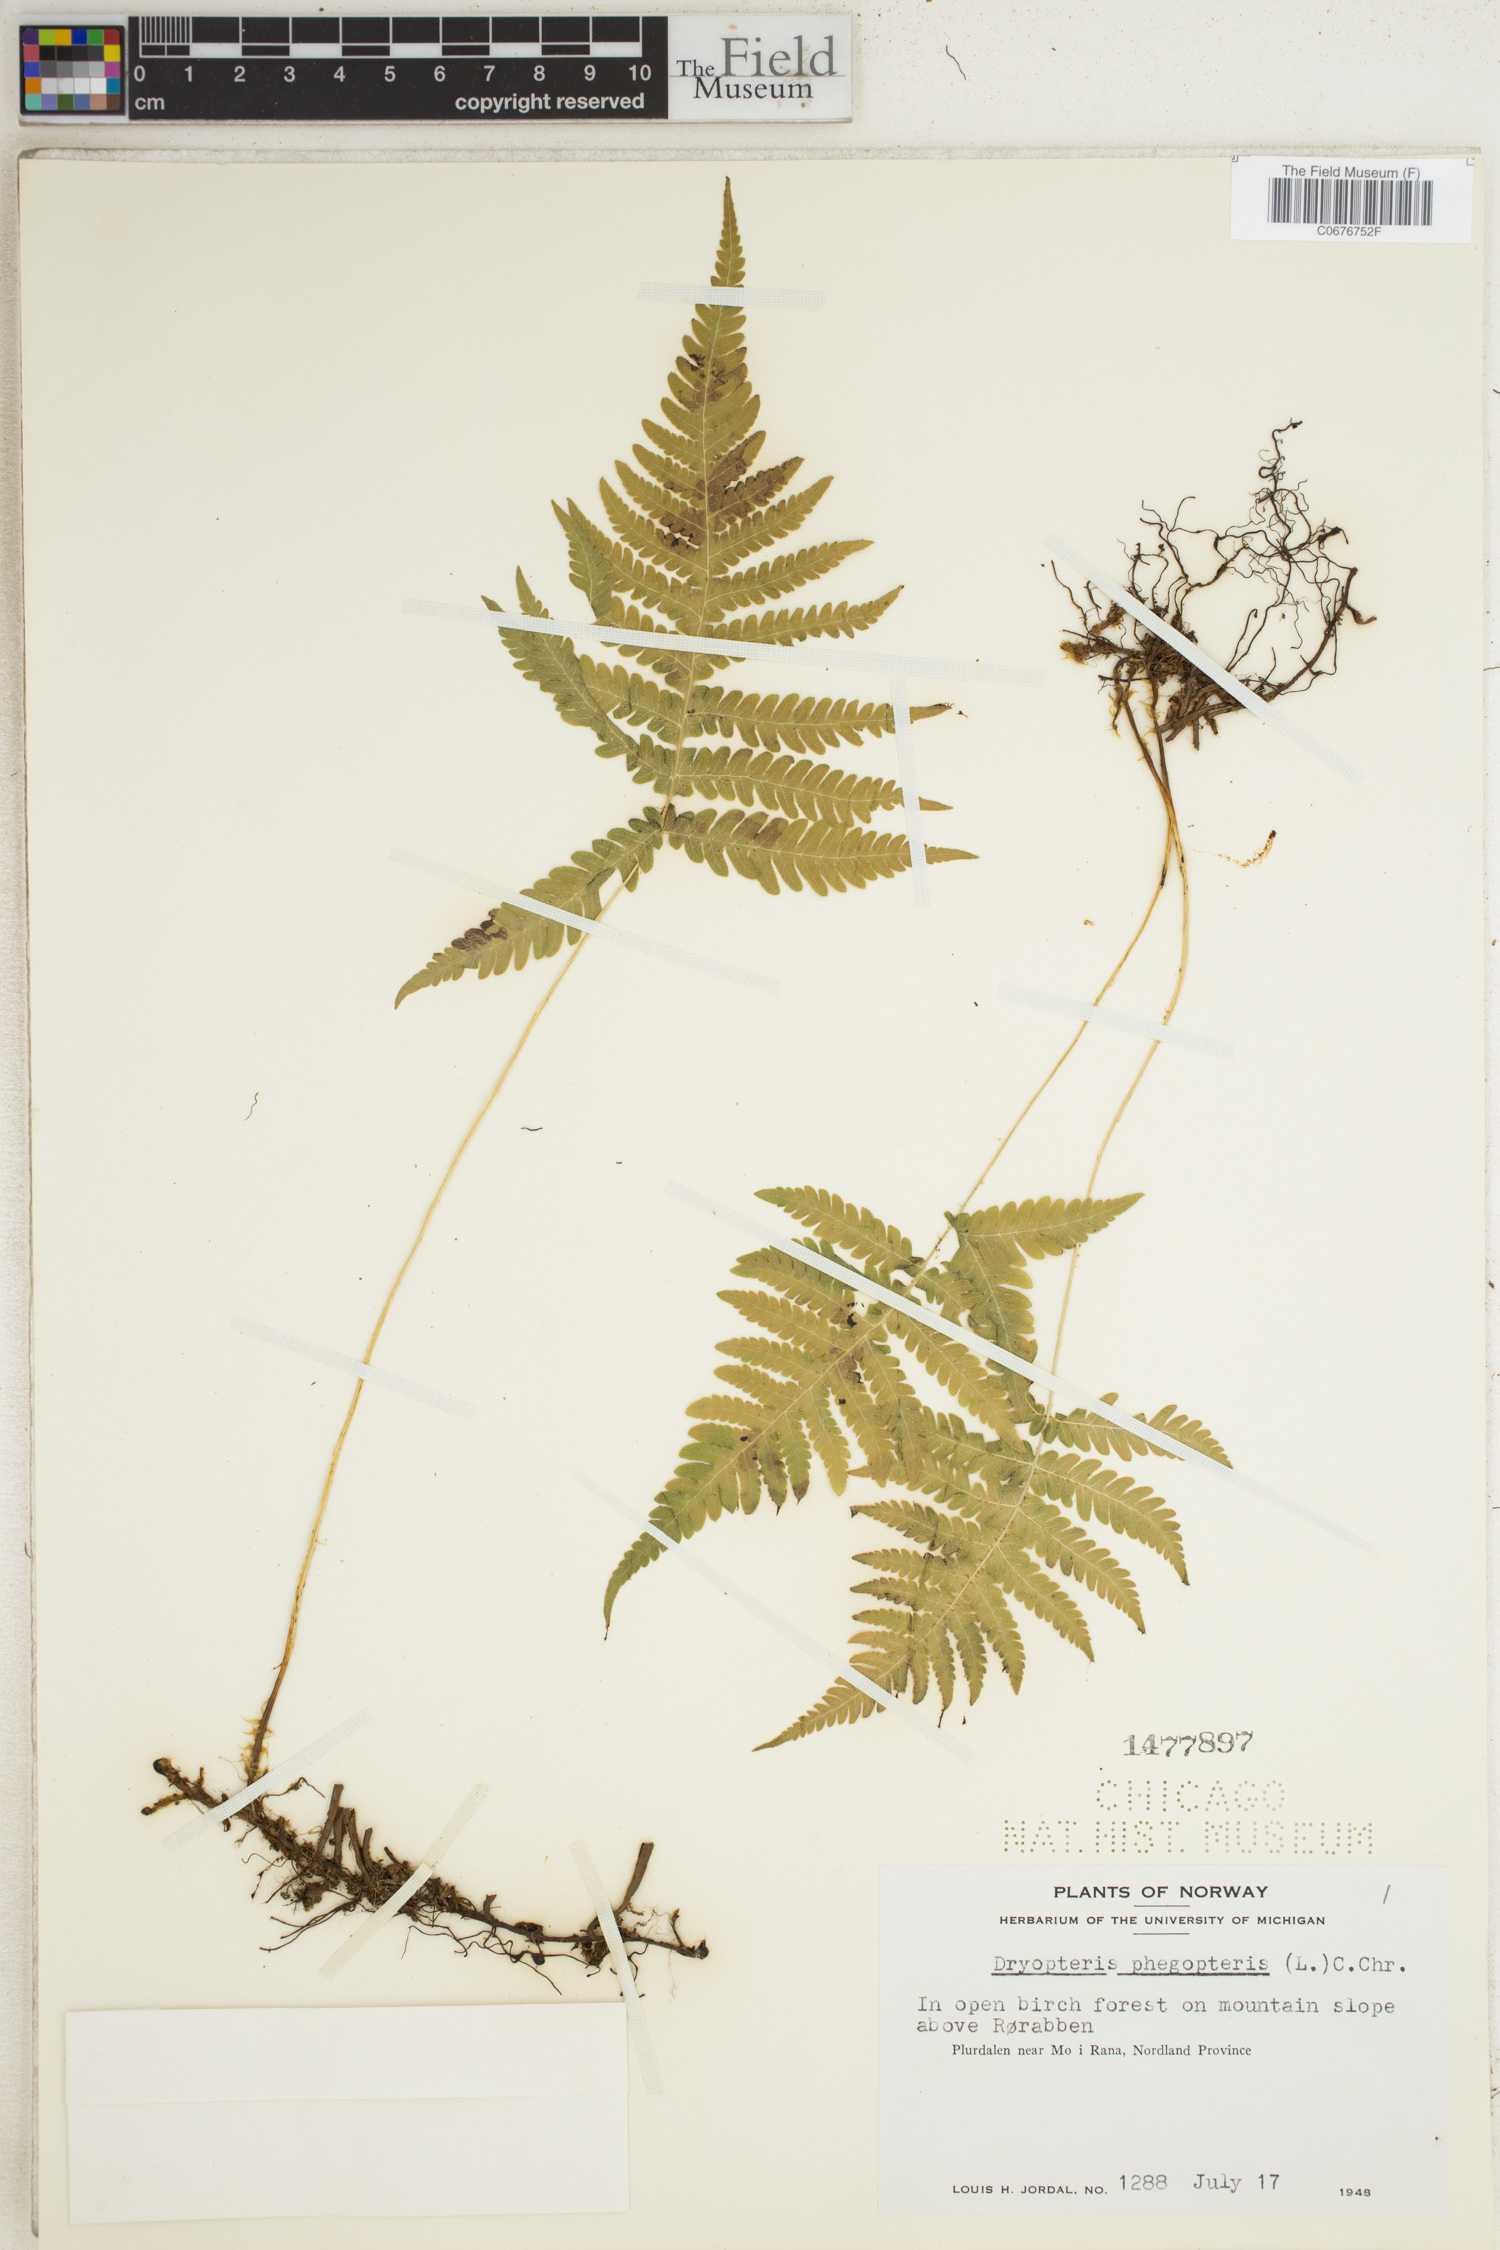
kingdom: Plantae
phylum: Tracheophyta
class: Polypodiopsida
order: Polypodiales
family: Thelypteridaceae
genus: Phegopteris
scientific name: Phegopteris connectilis
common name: Beech fern
